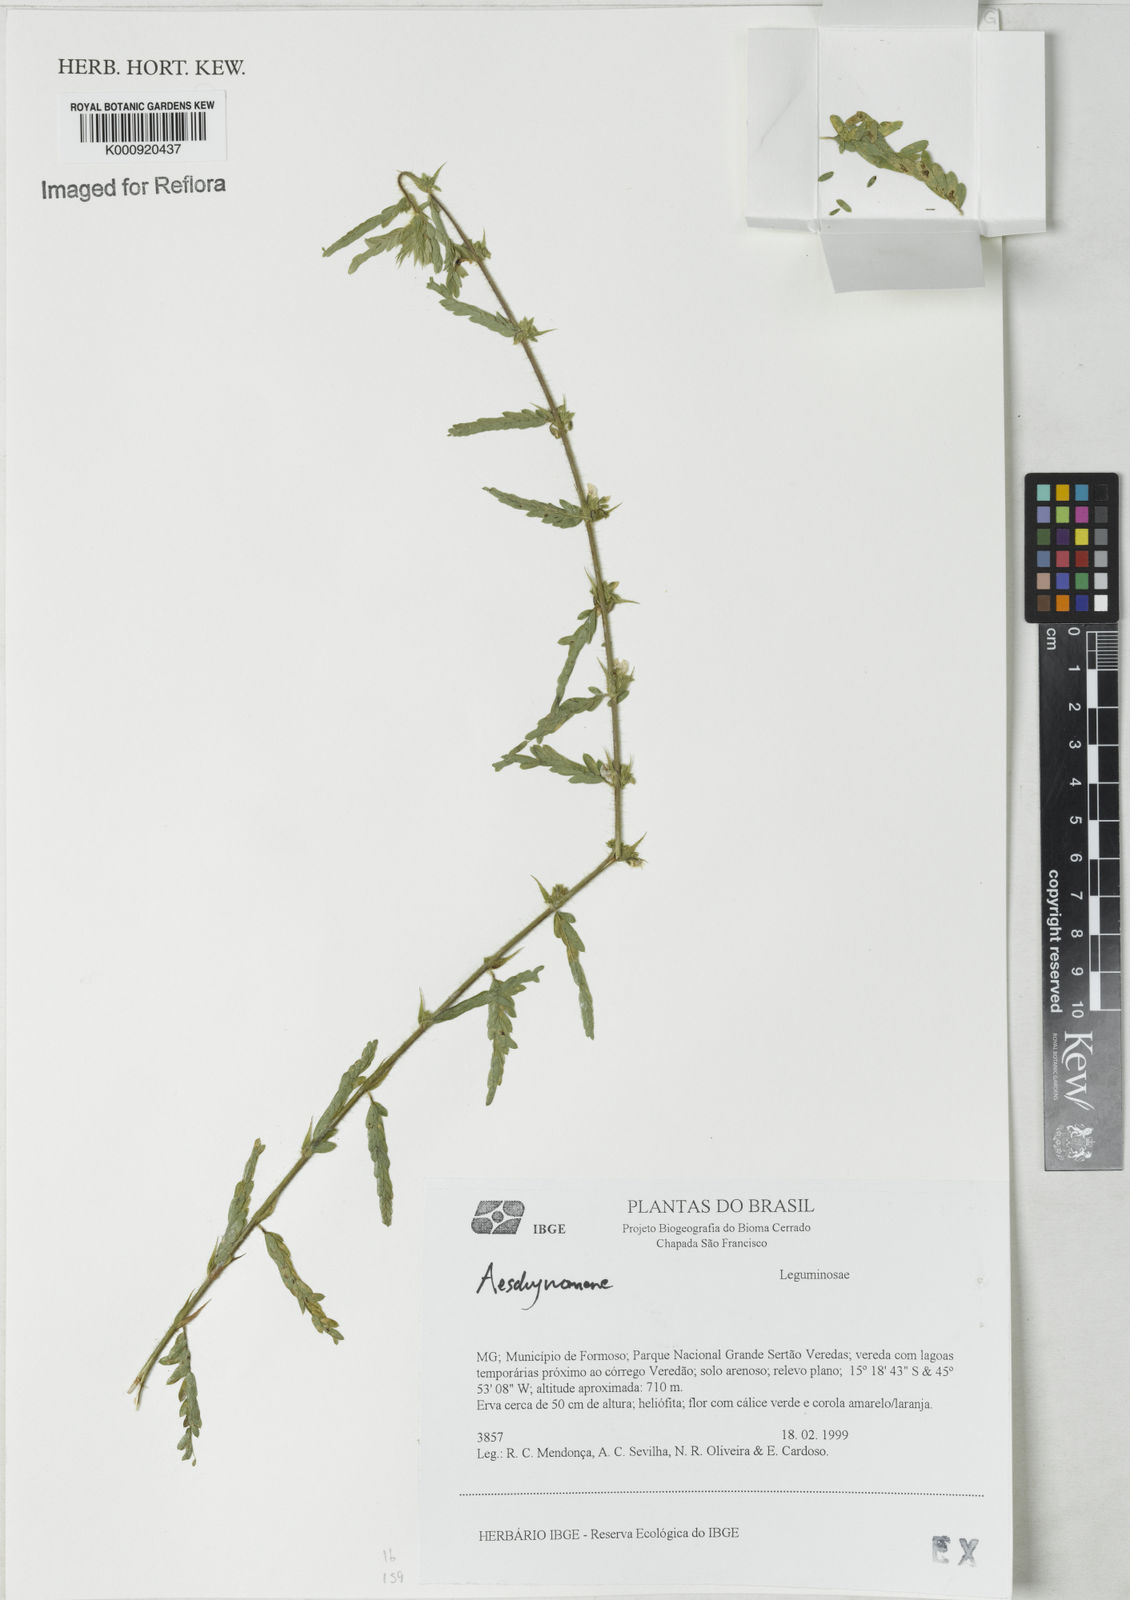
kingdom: Plantae
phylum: Tracheophyta
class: Magnoliopsida
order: Fabales
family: Fabaceae
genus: Aeschynomene
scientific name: Aeschynomene
